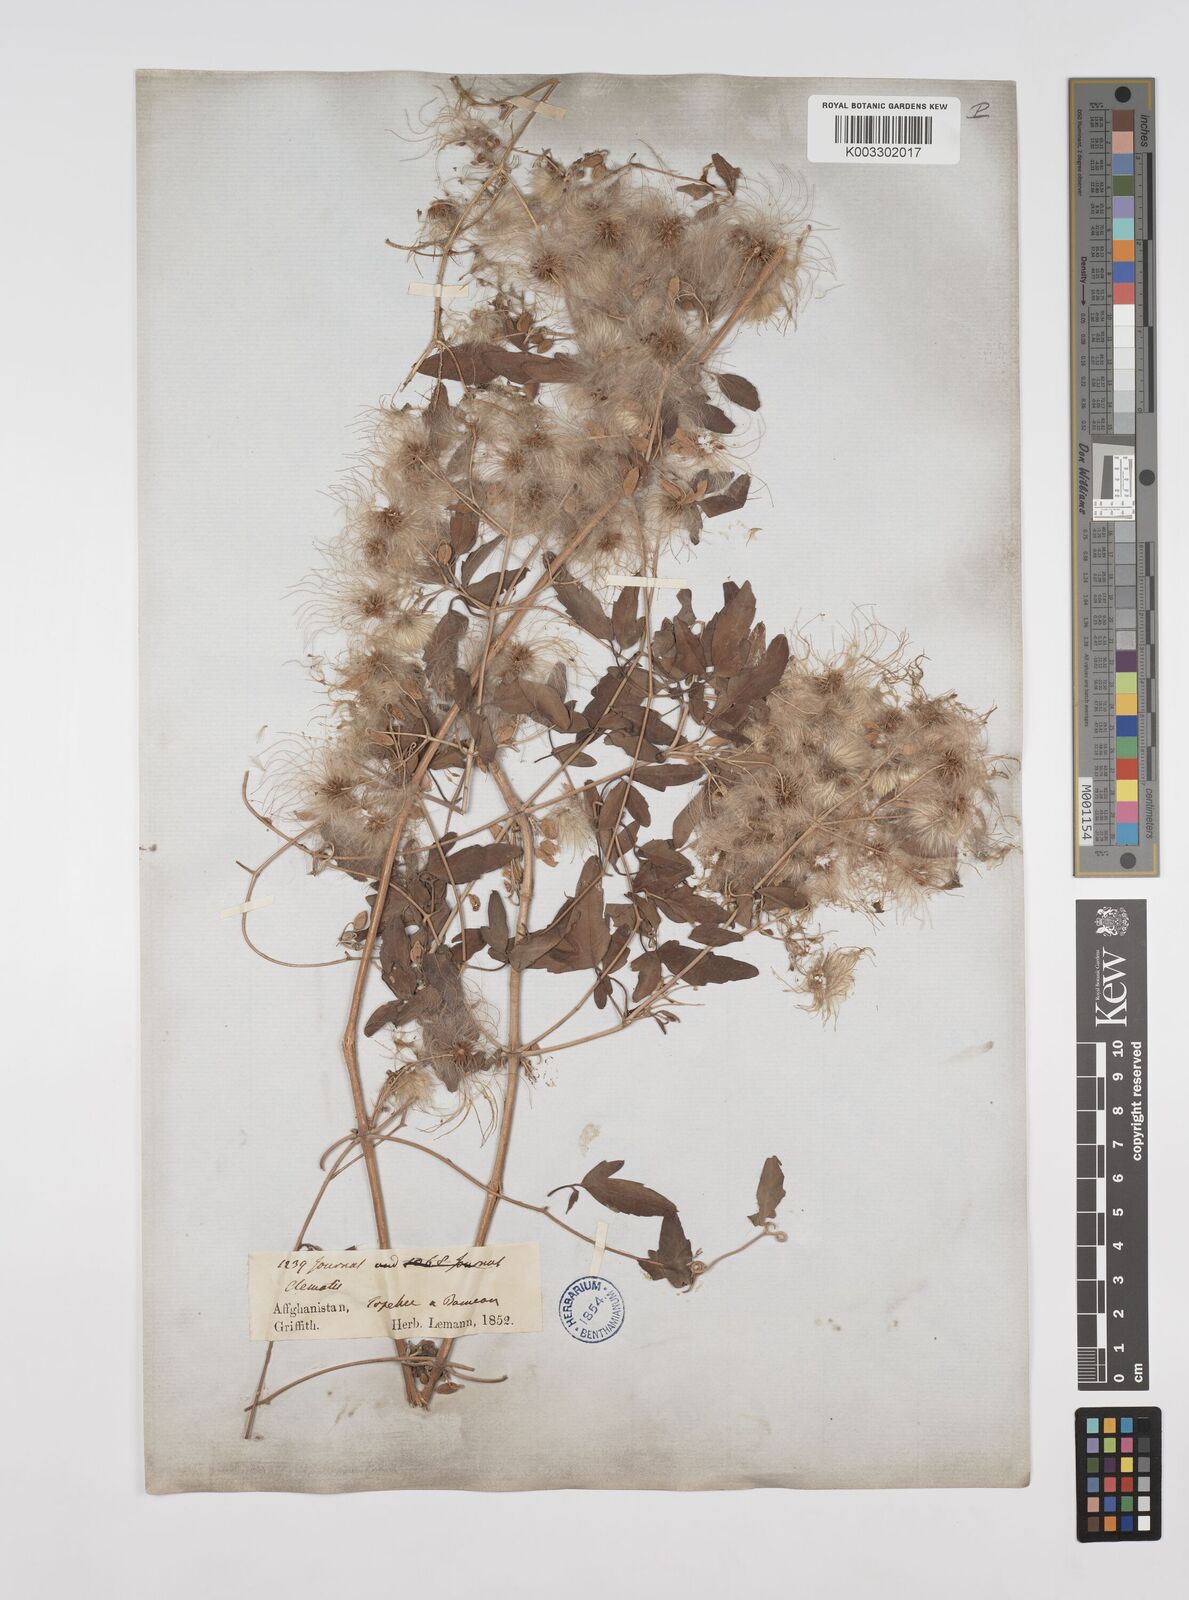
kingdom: Plantae
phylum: Tracheophyta
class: Magnoliopsida
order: Ranunculales
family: Ranunculaceae
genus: Clematis
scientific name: Clematis orientalis
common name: Oriental virgin's-bower
